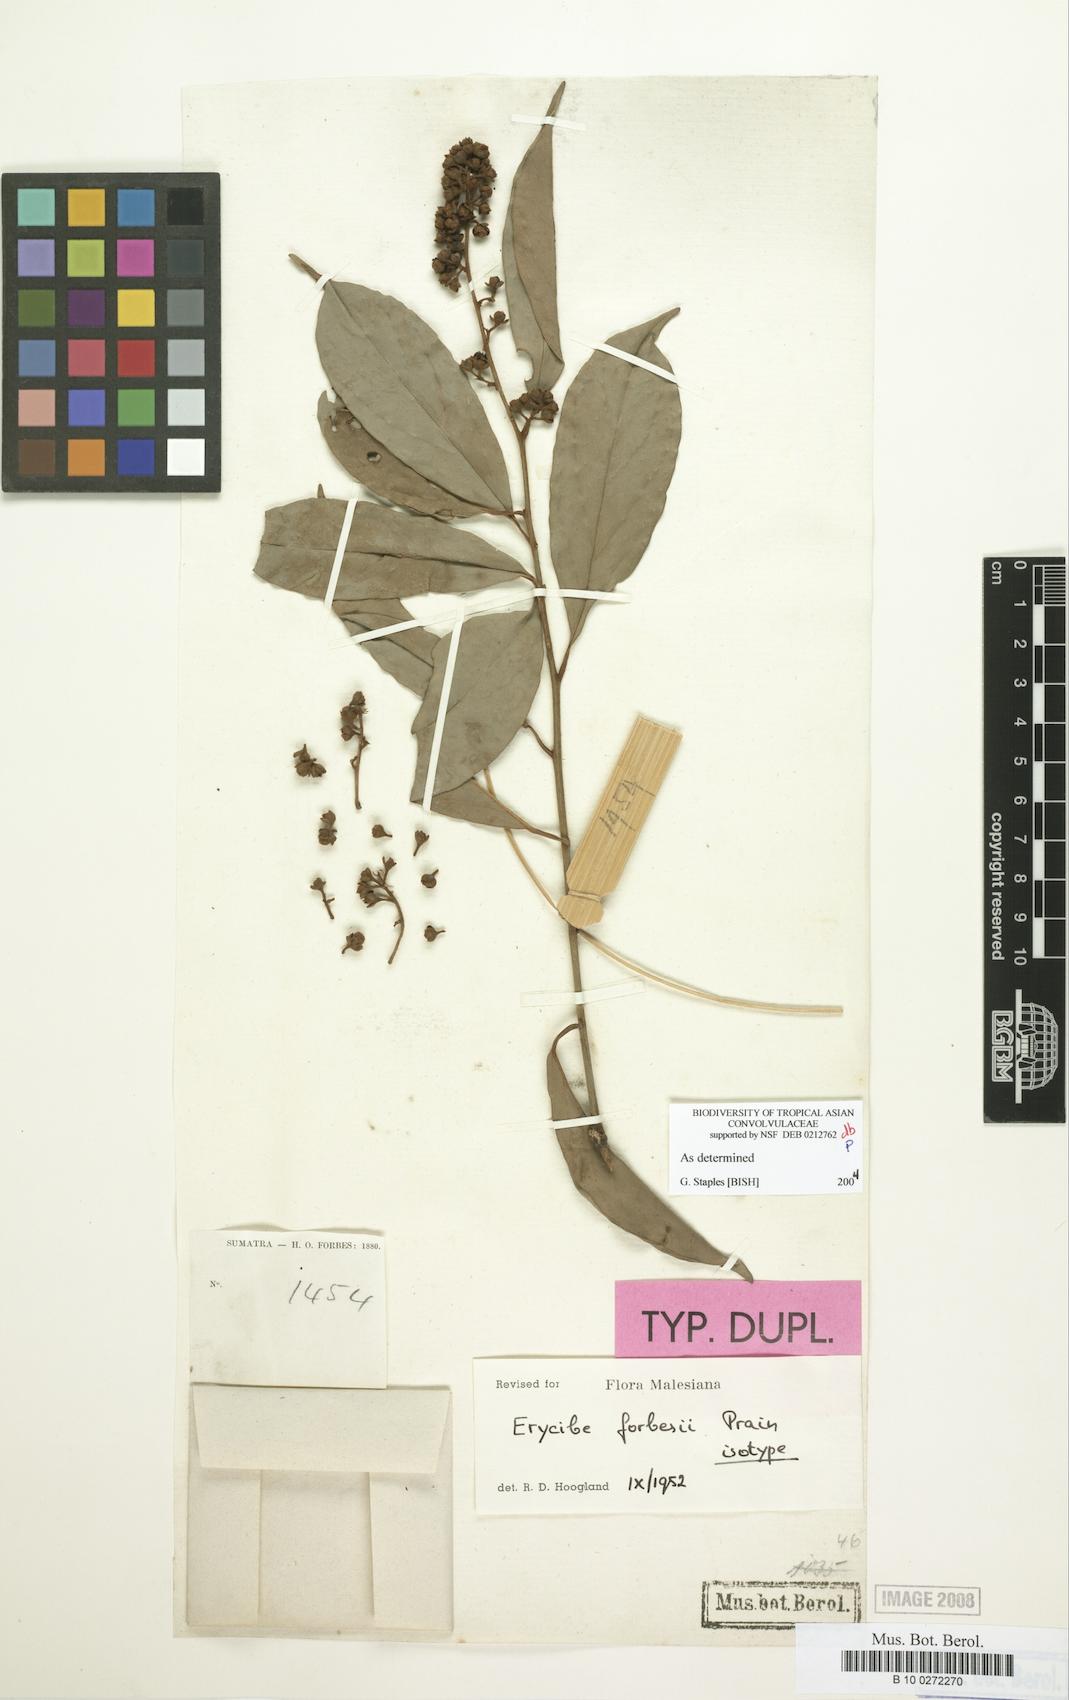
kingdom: Plantae
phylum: Tracheophyta
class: Magnoliopsida
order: Solanales
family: Convolvulaceae
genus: Erycibe
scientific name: Erycibe forbesii
